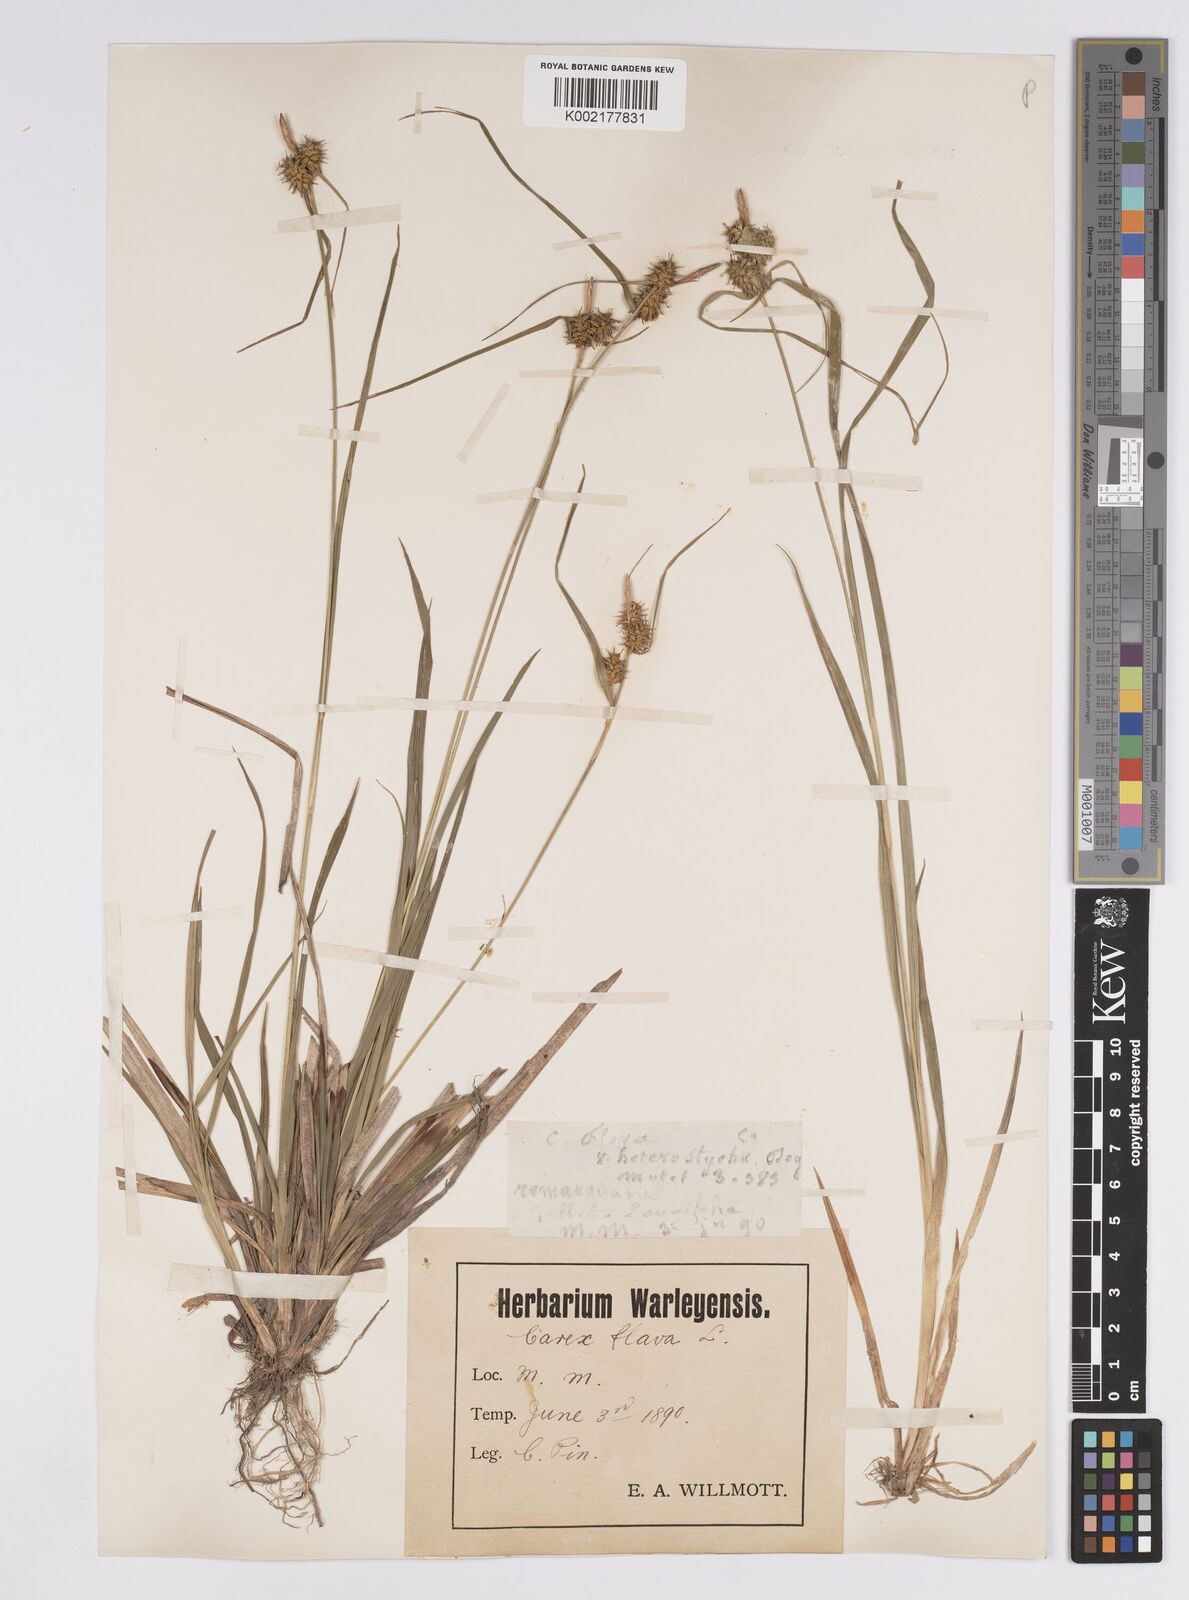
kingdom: Plantae
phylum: Tracheophyta
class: Liliopsida
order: Poales
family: Cyperaceae
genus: Carex
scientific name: Carex flava
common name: Large yellow-sedge
